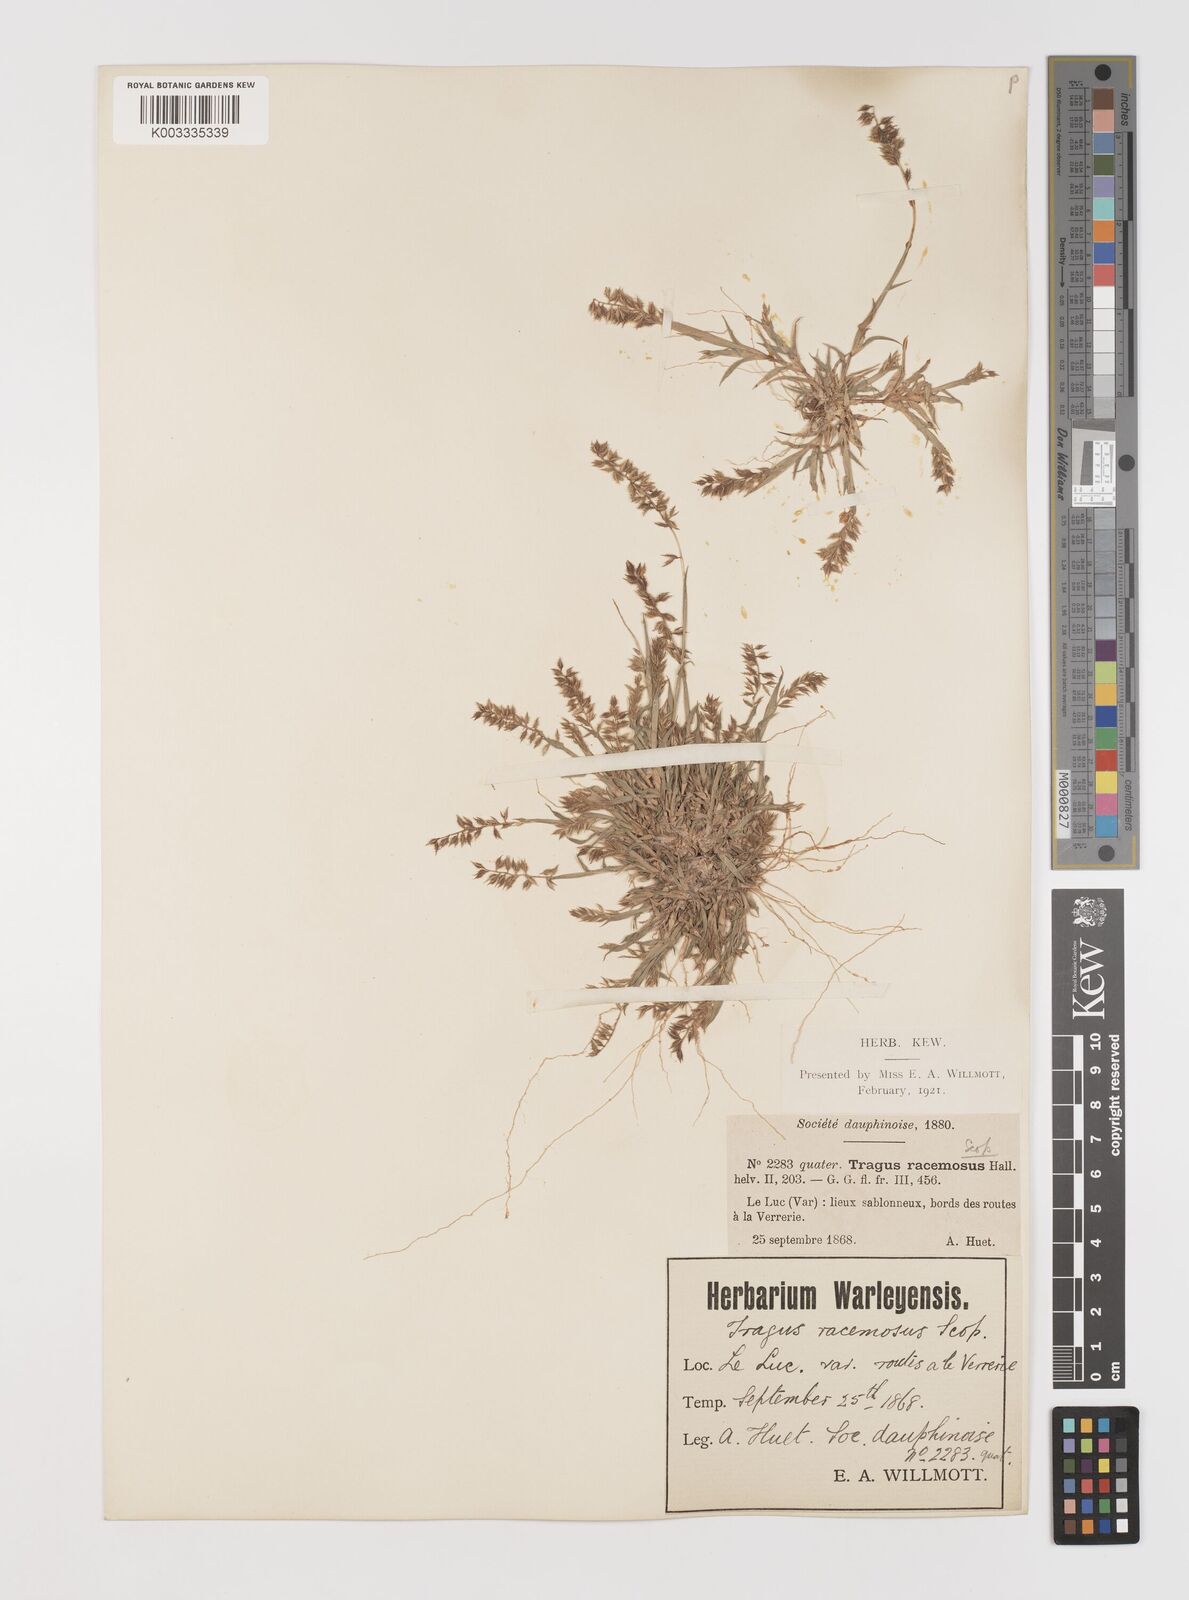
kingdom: Plantae
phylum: Tracheophyta
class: Liliopsida
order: Poales
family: Poaceae
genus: Tragus
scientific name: Tragus racemosus
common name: European bur-grass
